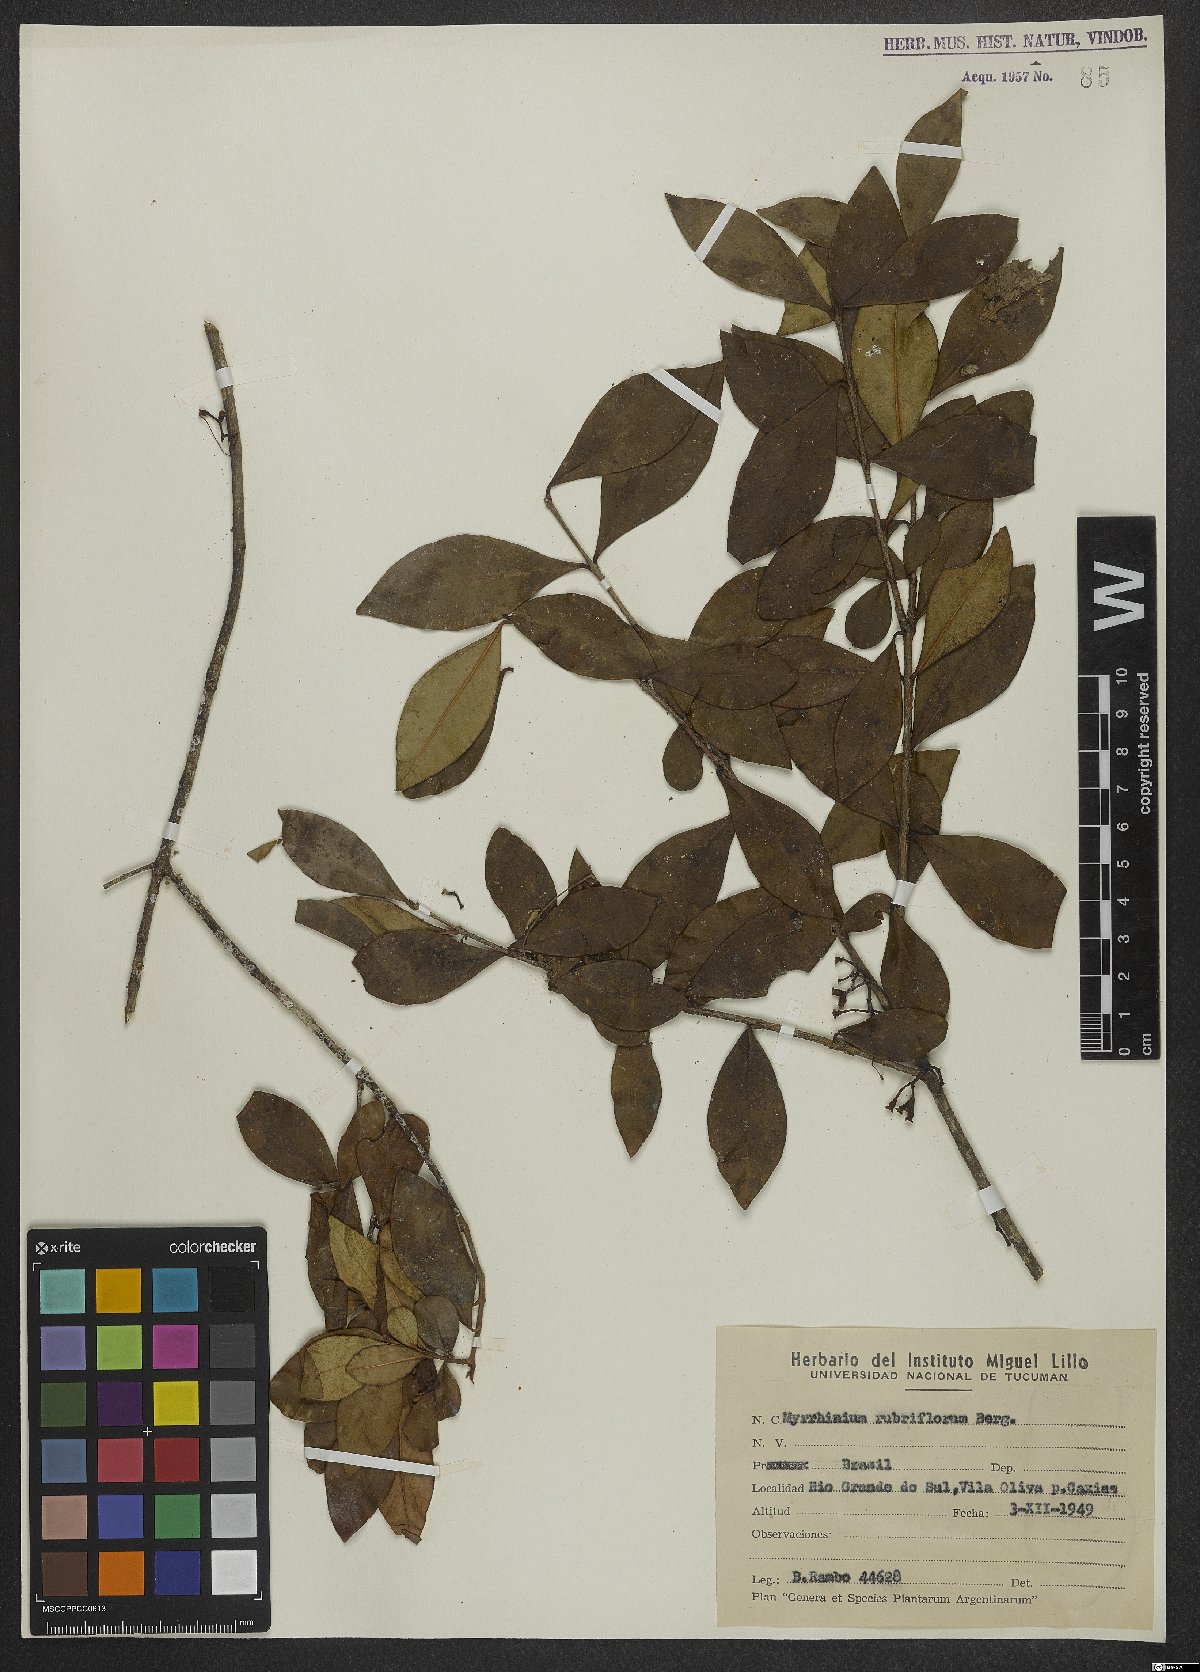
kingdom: Plantae
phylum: Tracheophyta
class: Magnoliopsida
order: Myrtales
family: Myrtaceae
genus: Myrrhinium
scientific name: Myrrhinium atropurpureum
